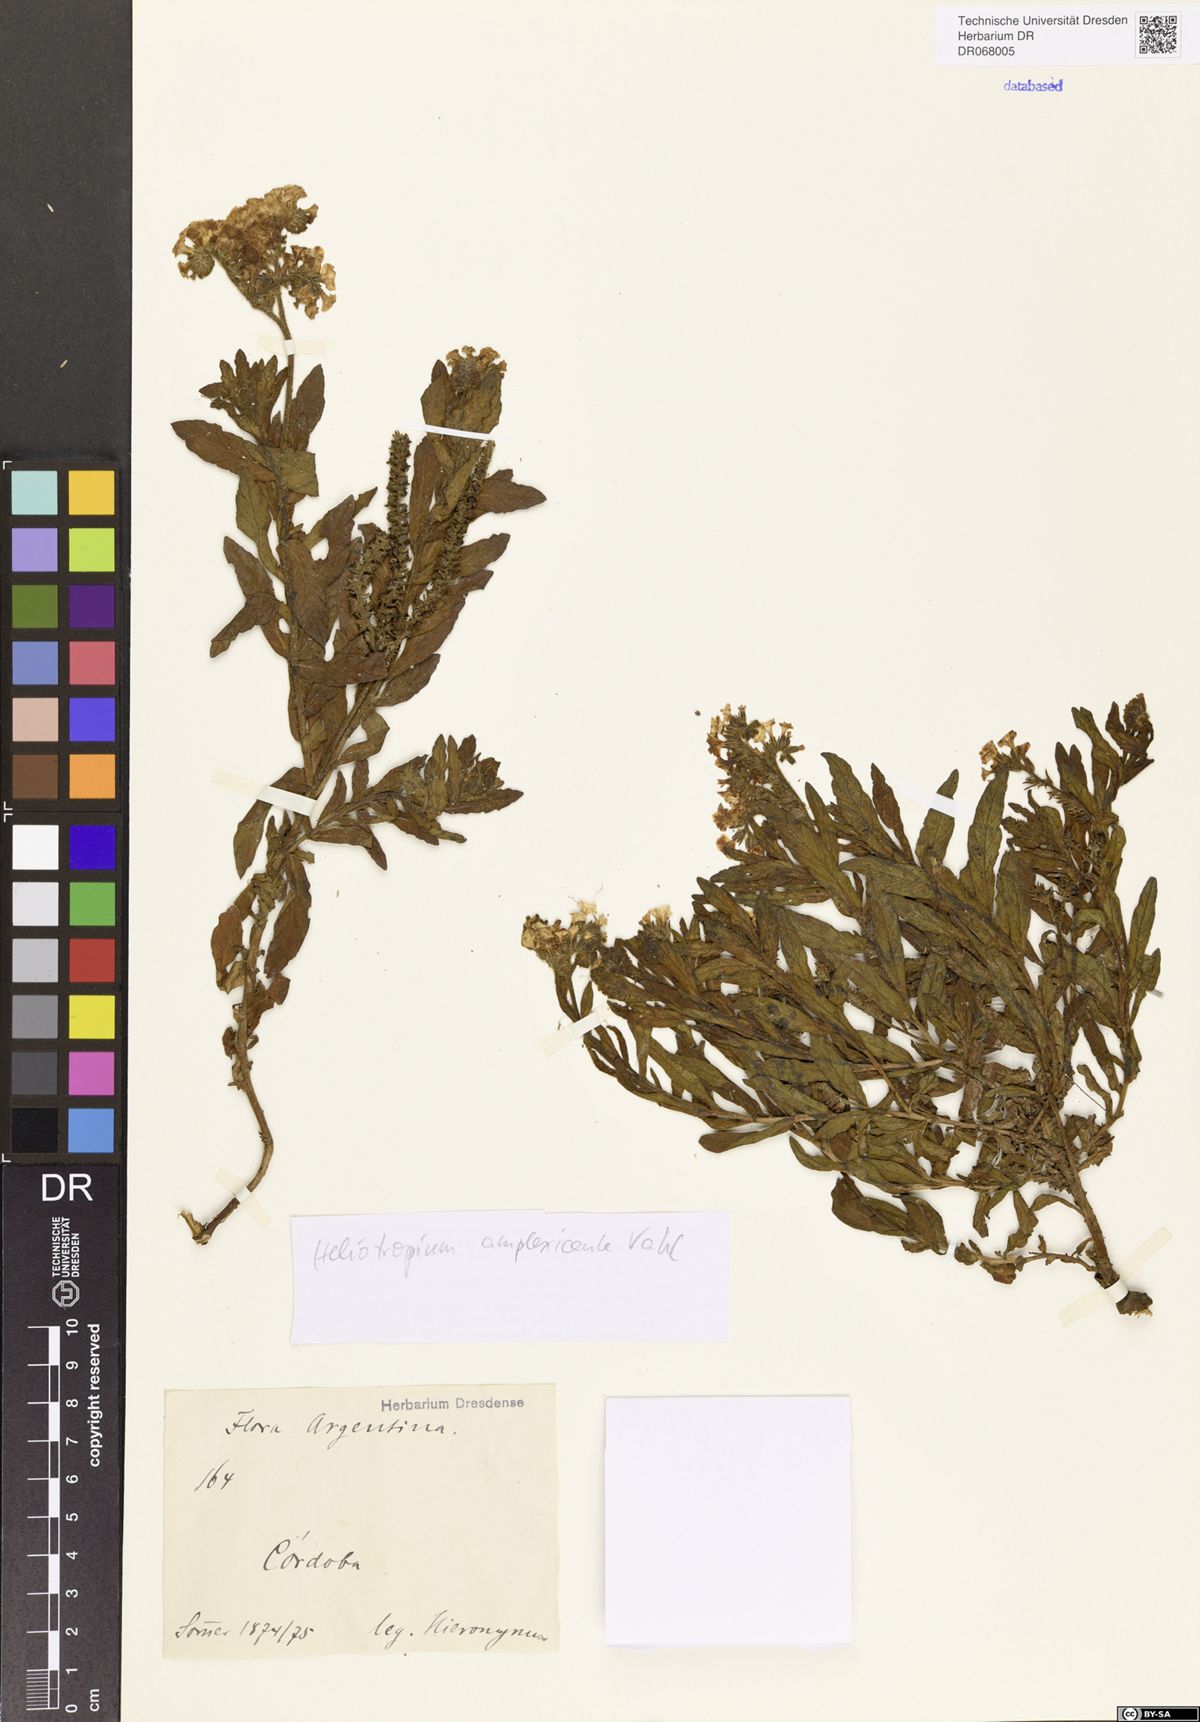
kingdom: Plantae
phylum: Tracheophyta
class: Magnoliopsida
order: Boraginales
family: Heliotropiaceae
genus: Heliotropium
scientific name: Heliotropium amplexicaule
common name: Clasping heliotrope
